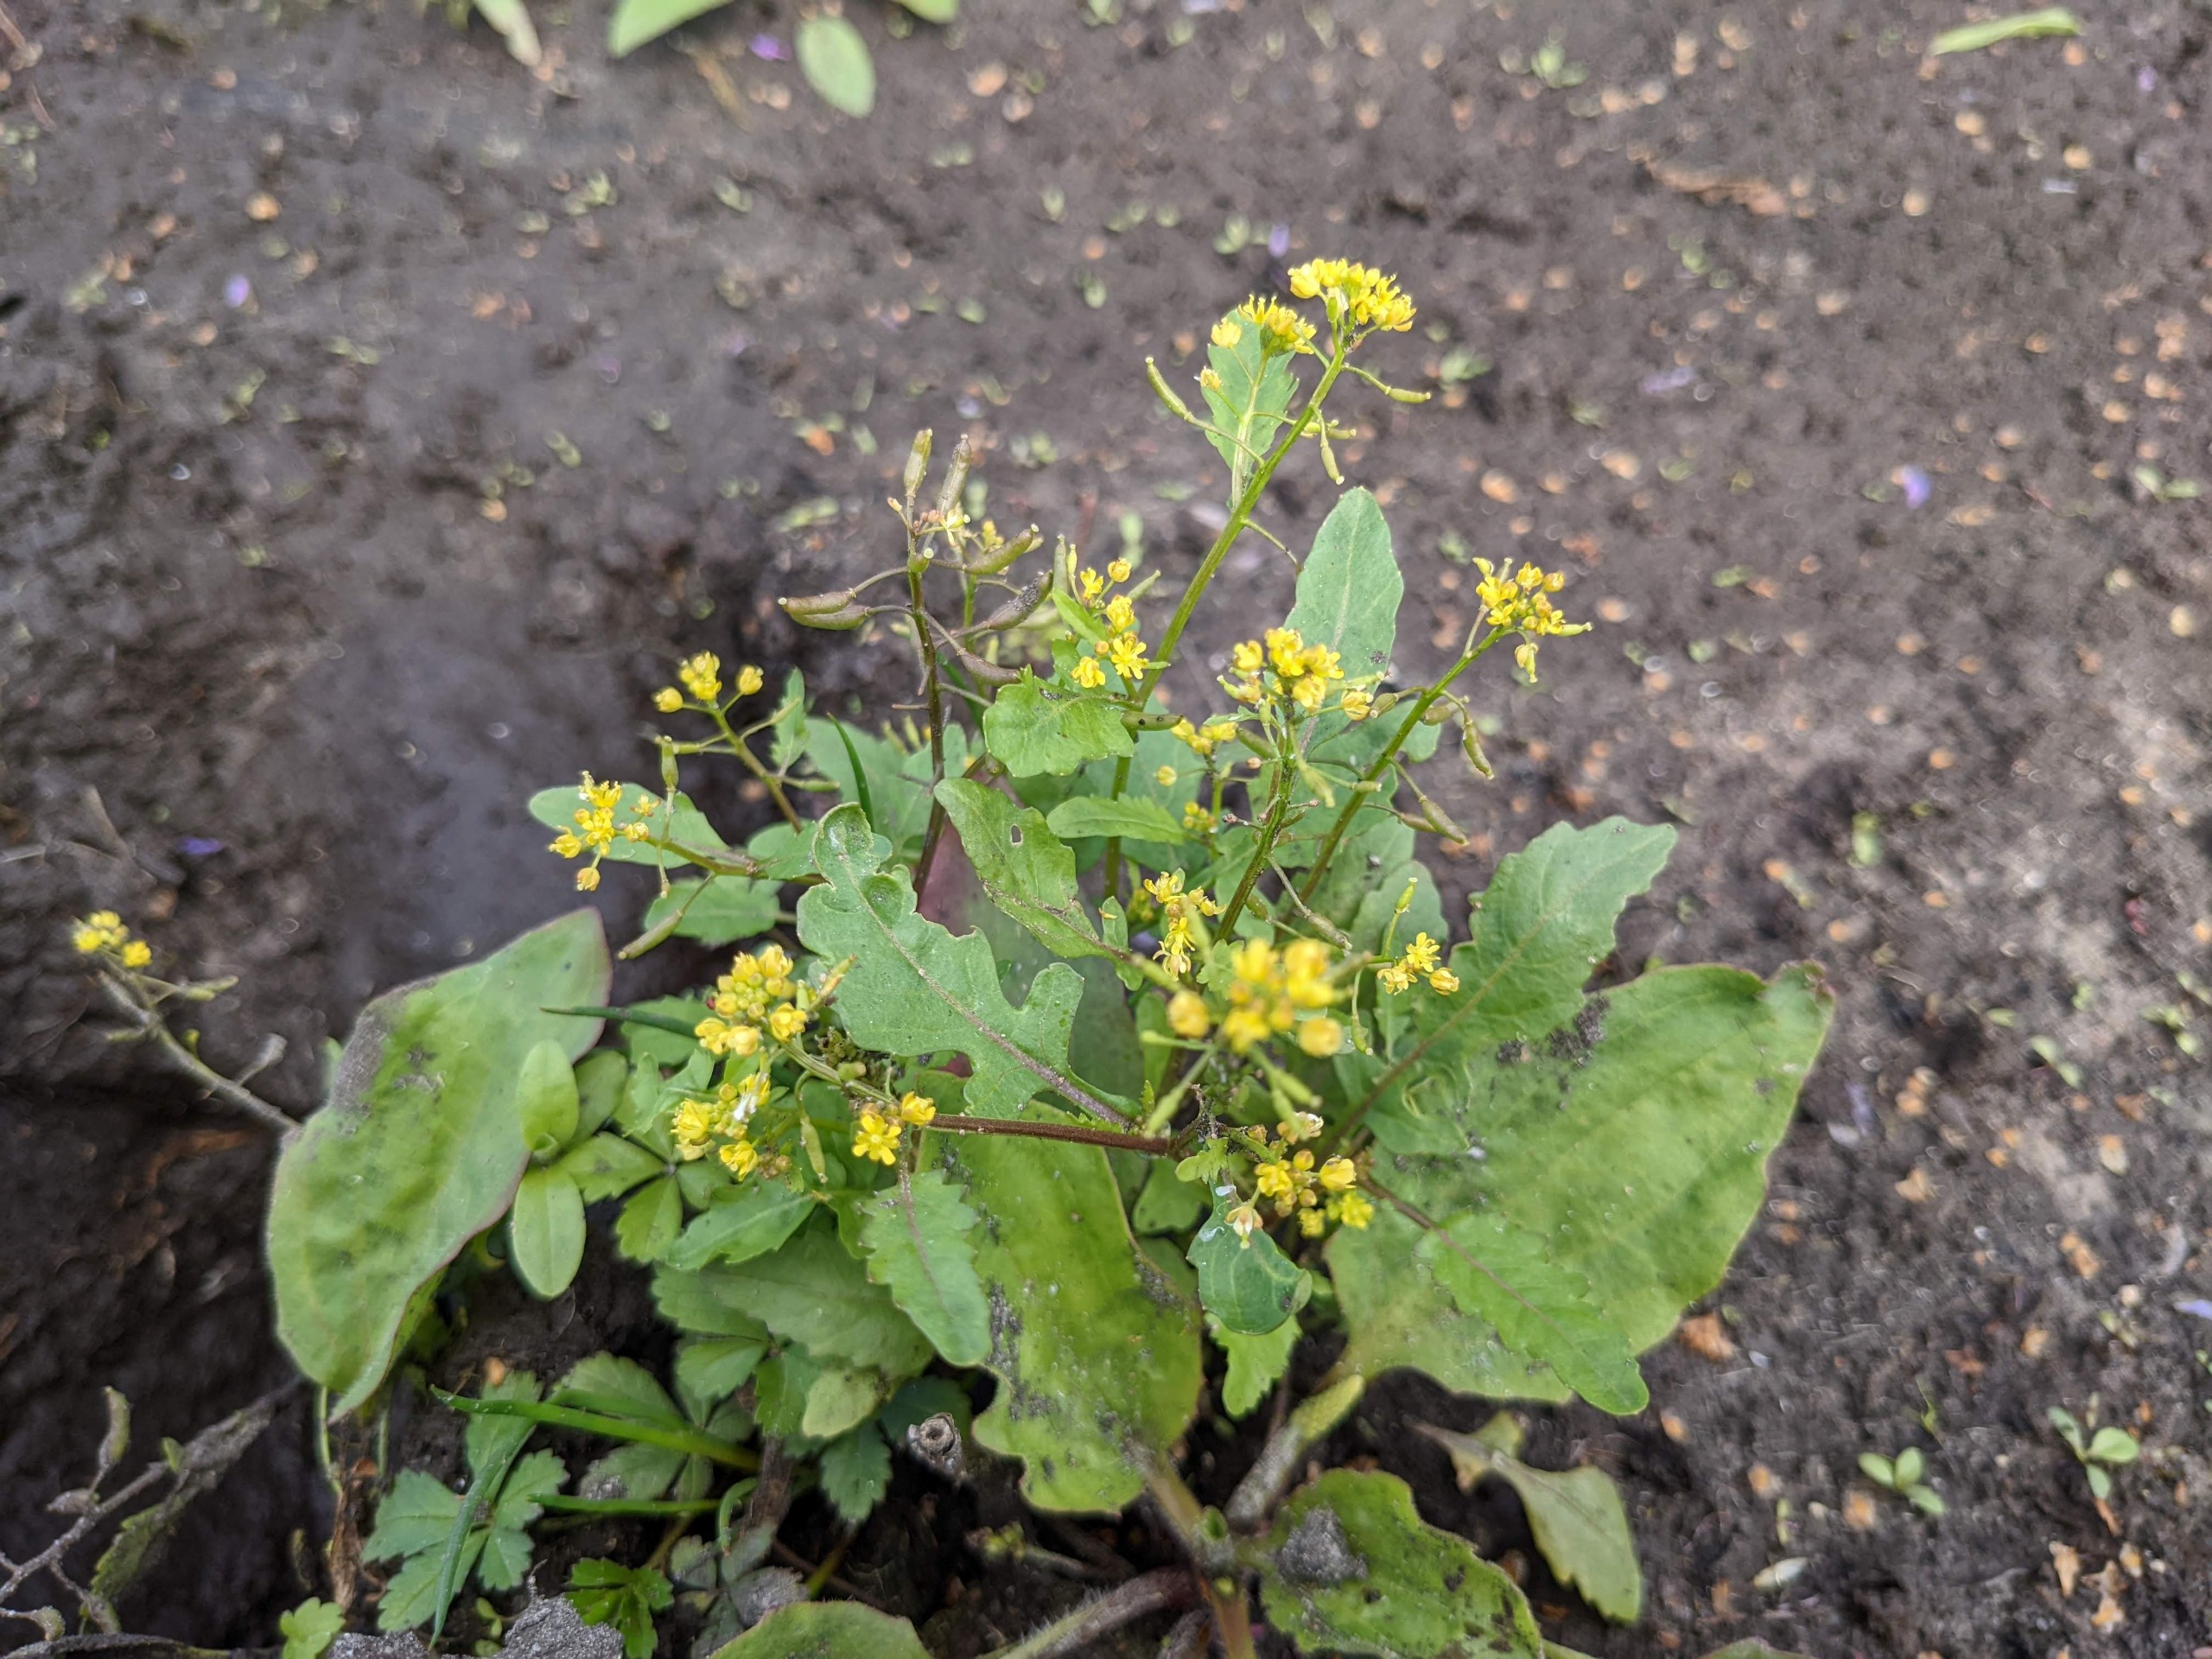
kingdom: Plantae
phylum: Tracheophyta
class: Magnoliopsida
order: Brassicales
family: Brassicaceae
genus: Rorippa
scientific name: Rorippa palustris
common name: Kær-guldkarse
